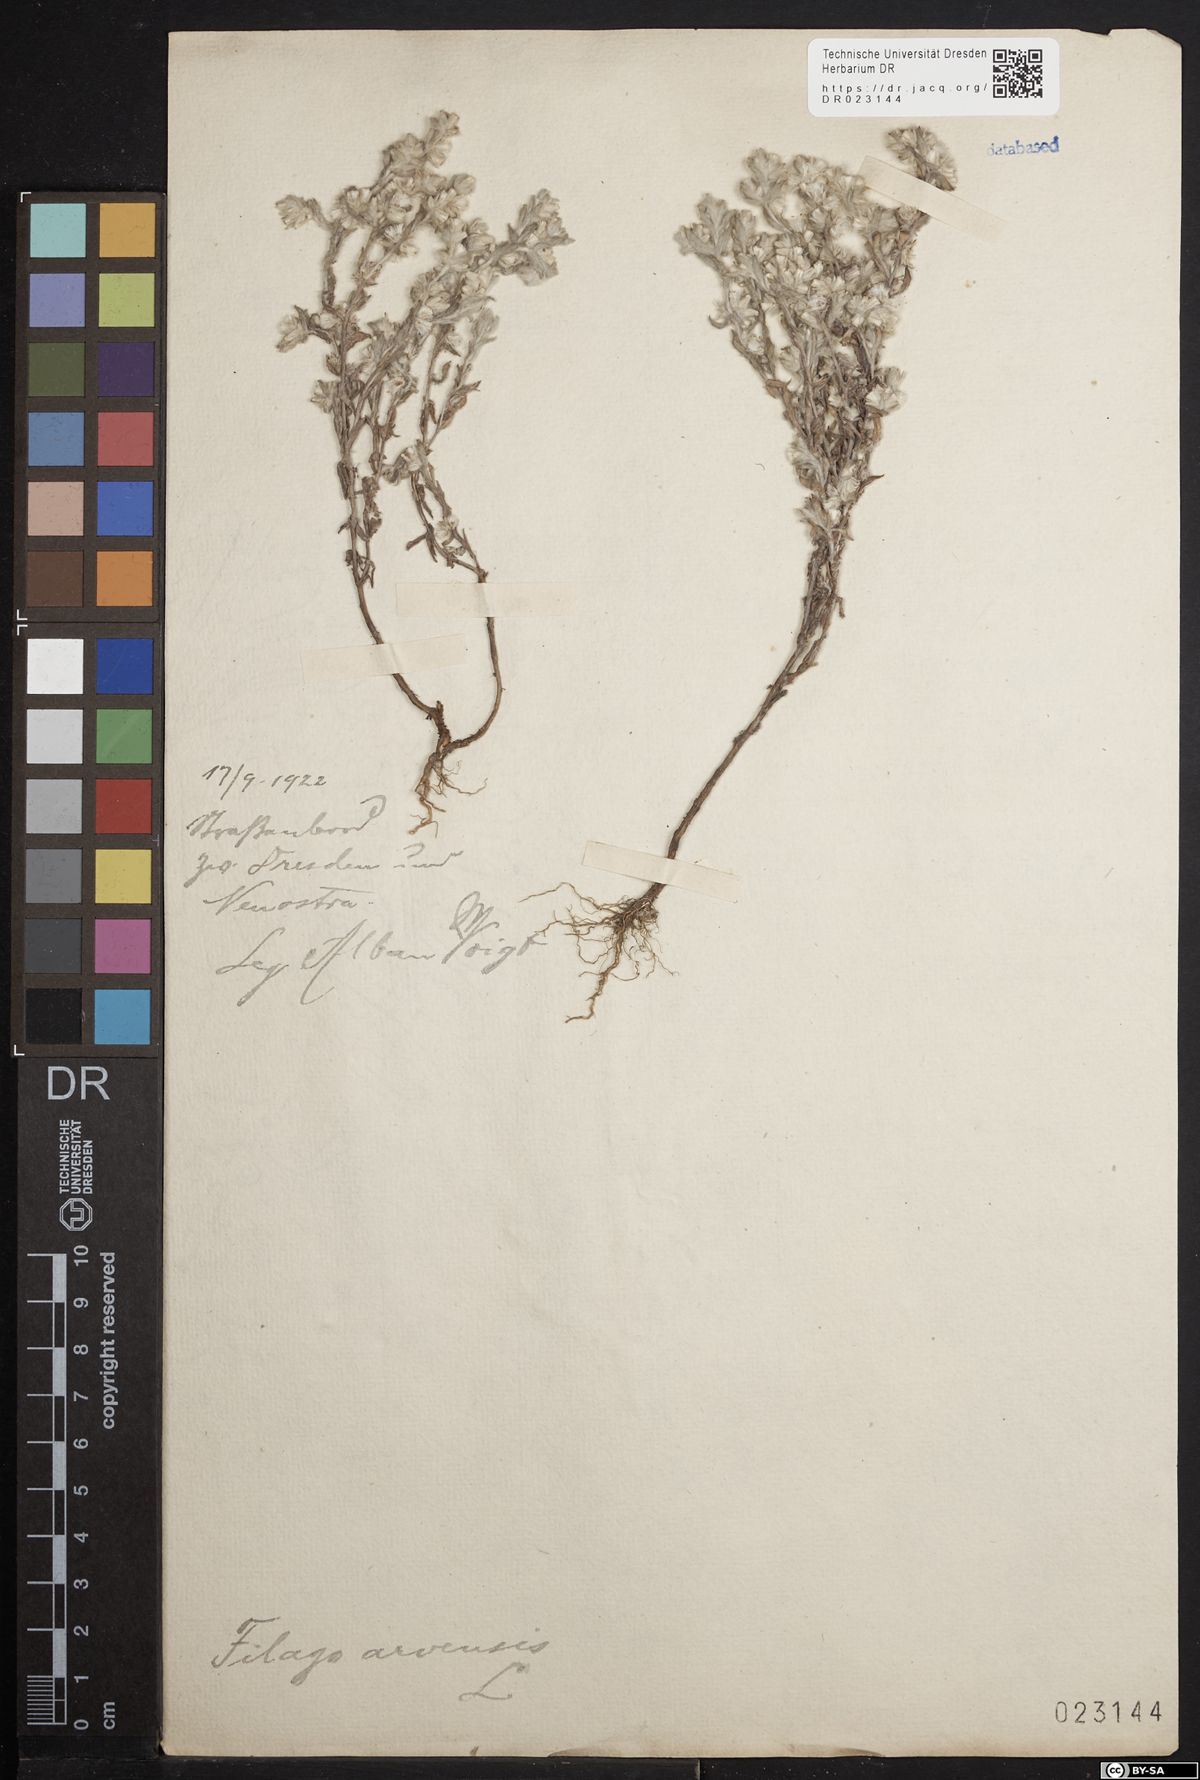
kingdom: Plantae
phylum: Tracheophyta
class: Magnoliopsida
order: Asterales
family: Asteraceae
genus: Filago
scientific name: Filago arvensis
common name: Field cudweed
